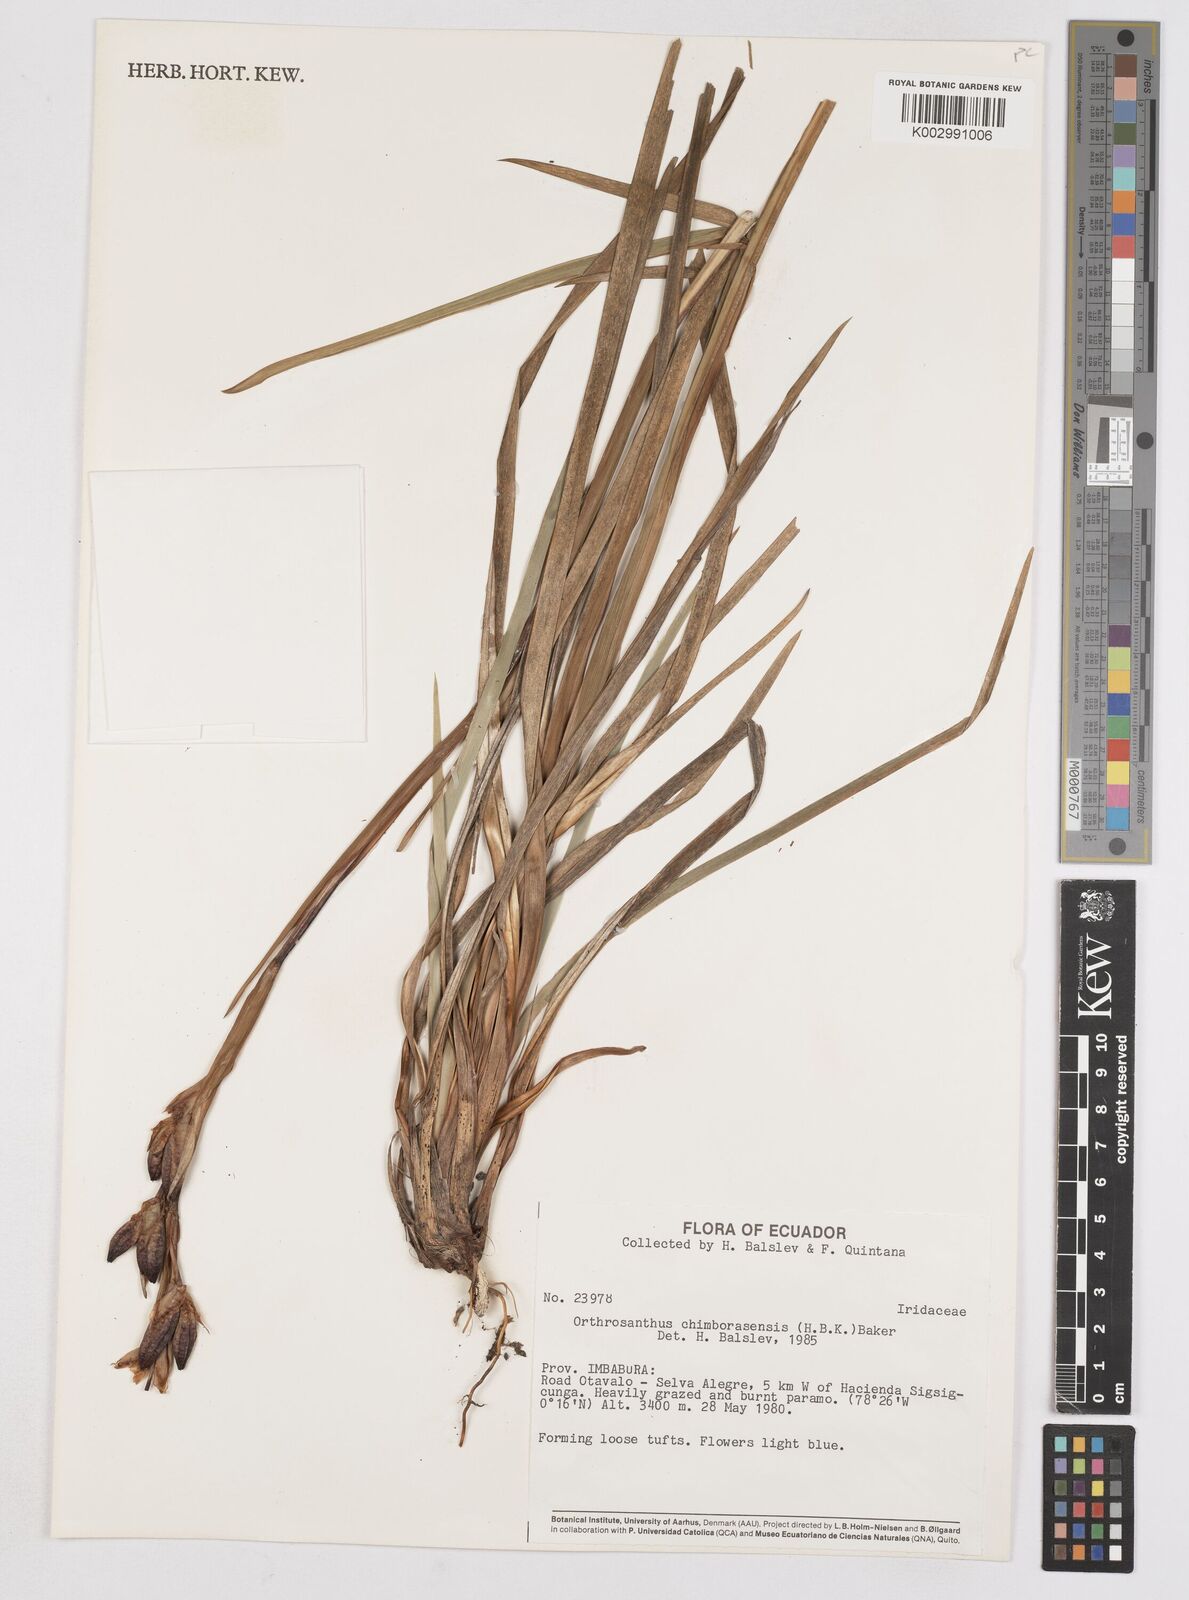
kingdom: Plantae
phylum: Tracheophyta
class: Liliopsida
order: Asparagales
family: Iridaceae
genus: Orthrosanthus
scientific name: Orthrosanthus chimboracensis
